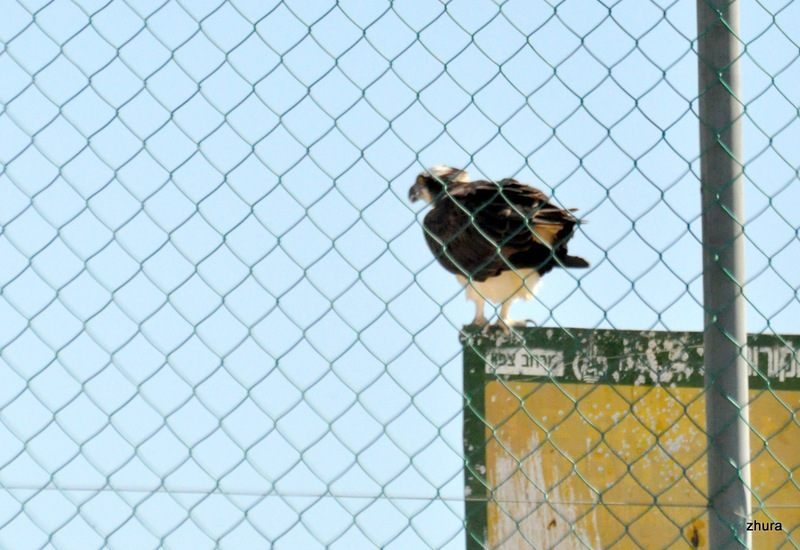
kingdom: Animalia
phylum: Chordata
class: Aves
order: Accipitriformes
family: Pandionidae
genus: Pandion
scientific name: Pandion haliaetus
